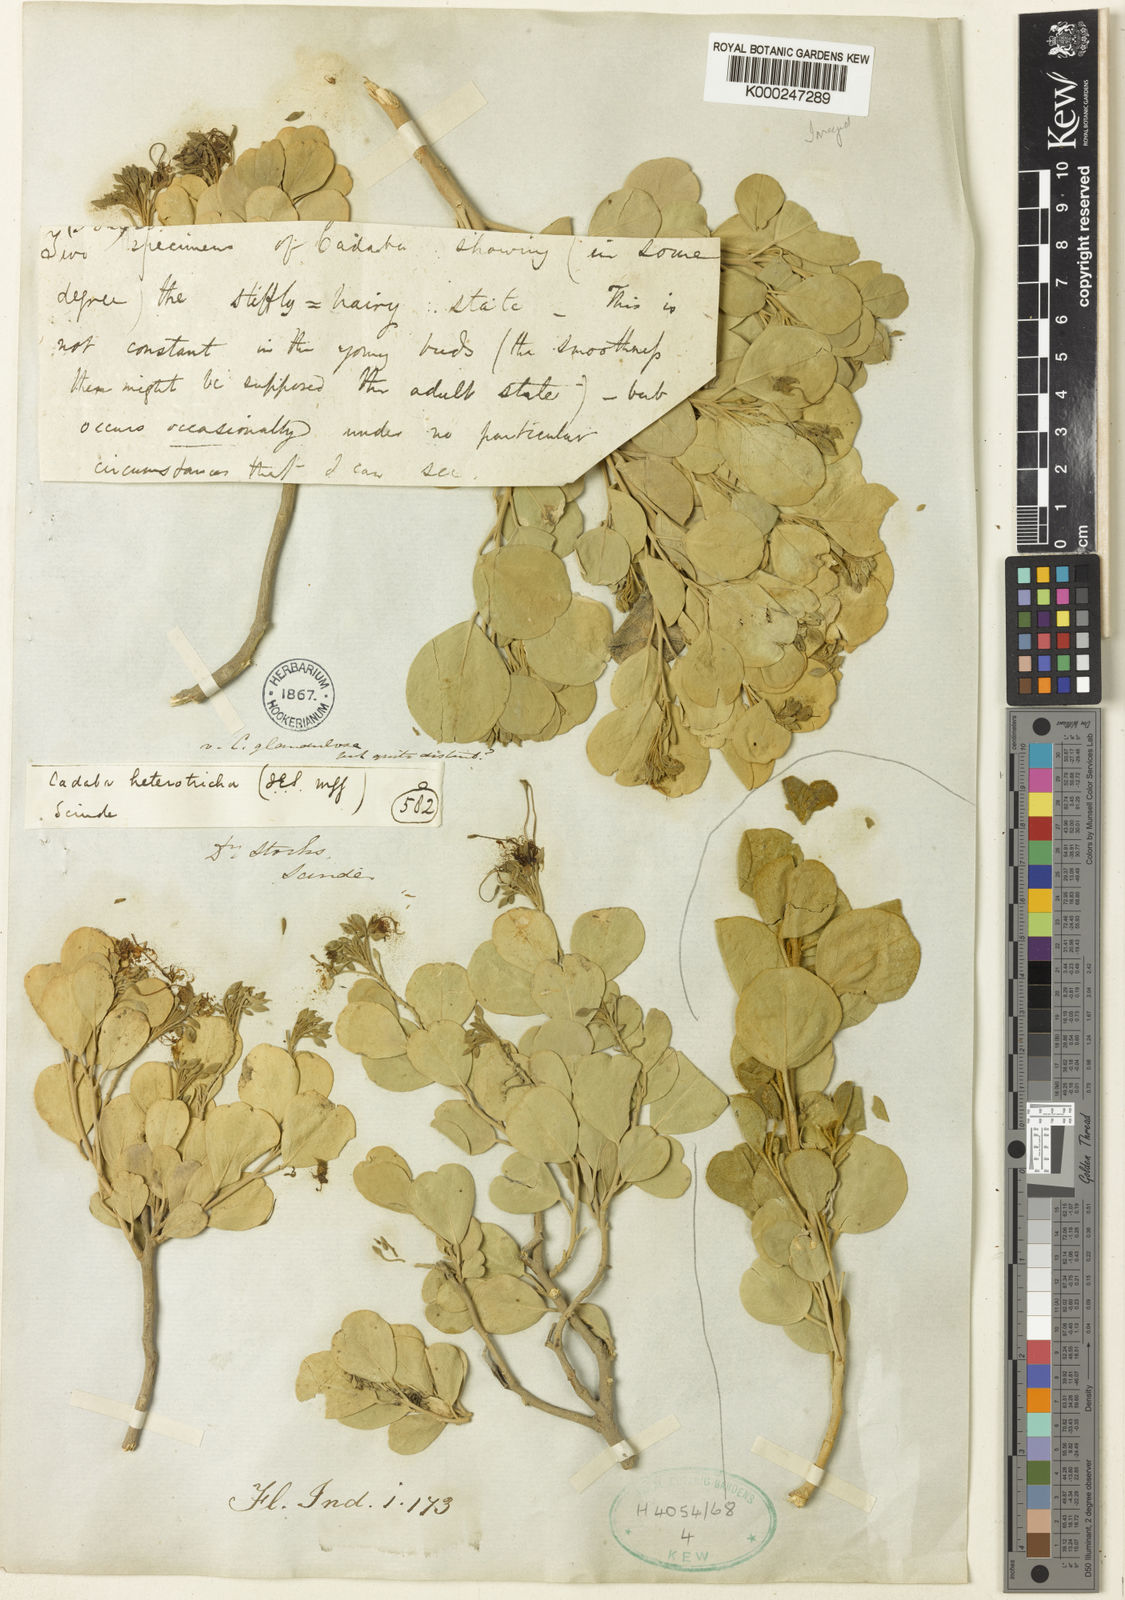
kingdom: Plantae
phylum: Tracheophyta
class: Magnoliopsida
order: Brassicales
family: Capparaceae
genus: Cadaba
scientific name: Cadaba
